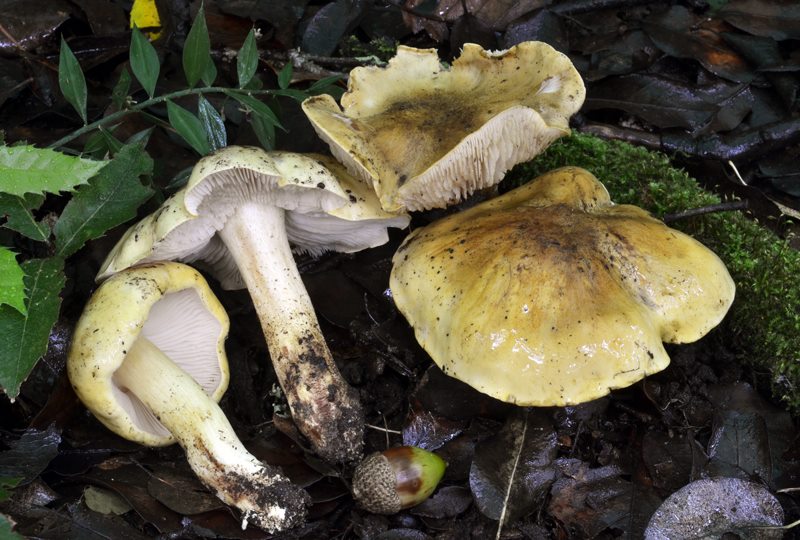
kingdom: Fungi
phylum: Basidiomycota
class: Agaricomycetes
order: Agaricales
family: Tricholomataceae
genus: Tricholoma
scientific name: Tricholoma viridifucatum
